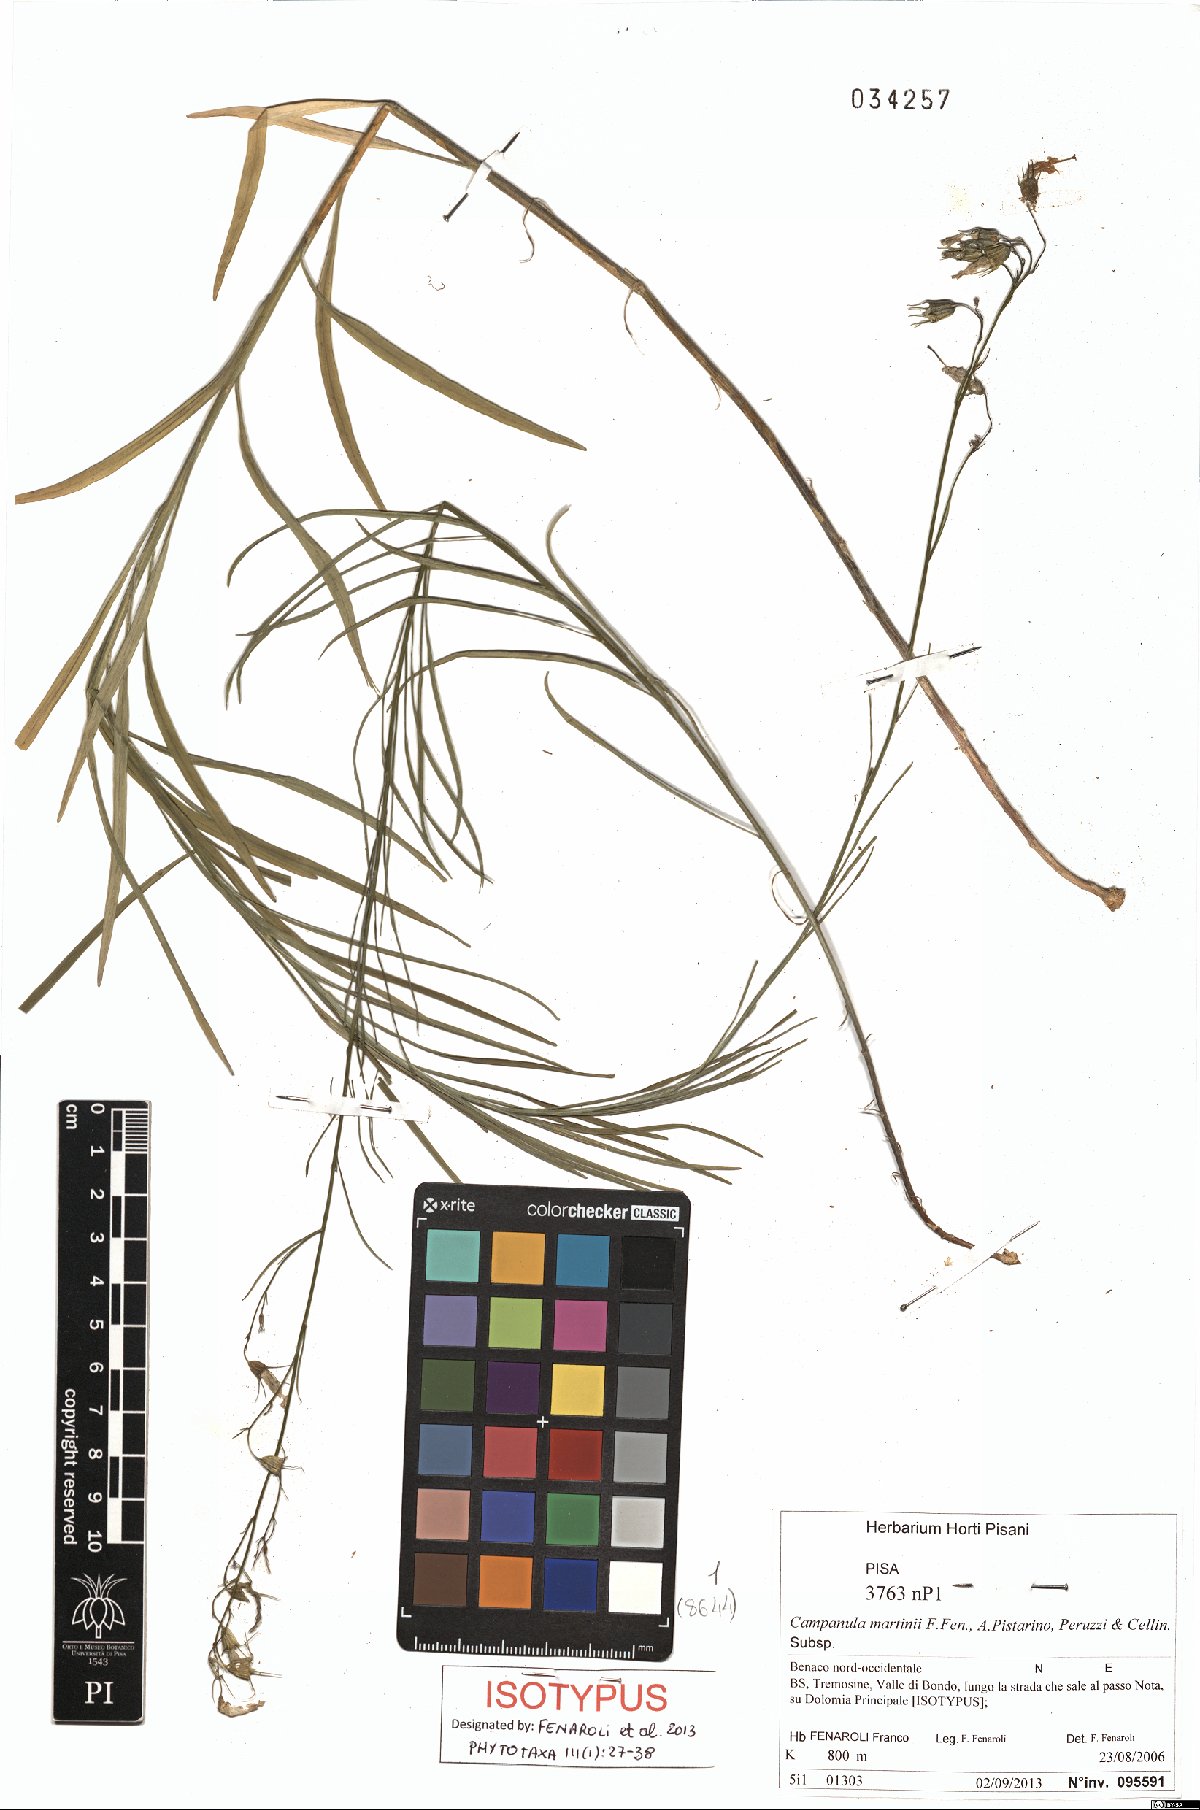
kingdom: Plantae
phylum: Tracheophyta
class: Magnoliopsida
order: Asterales
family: Campanulaceae
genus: Campanula
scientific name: Campanula martinii
